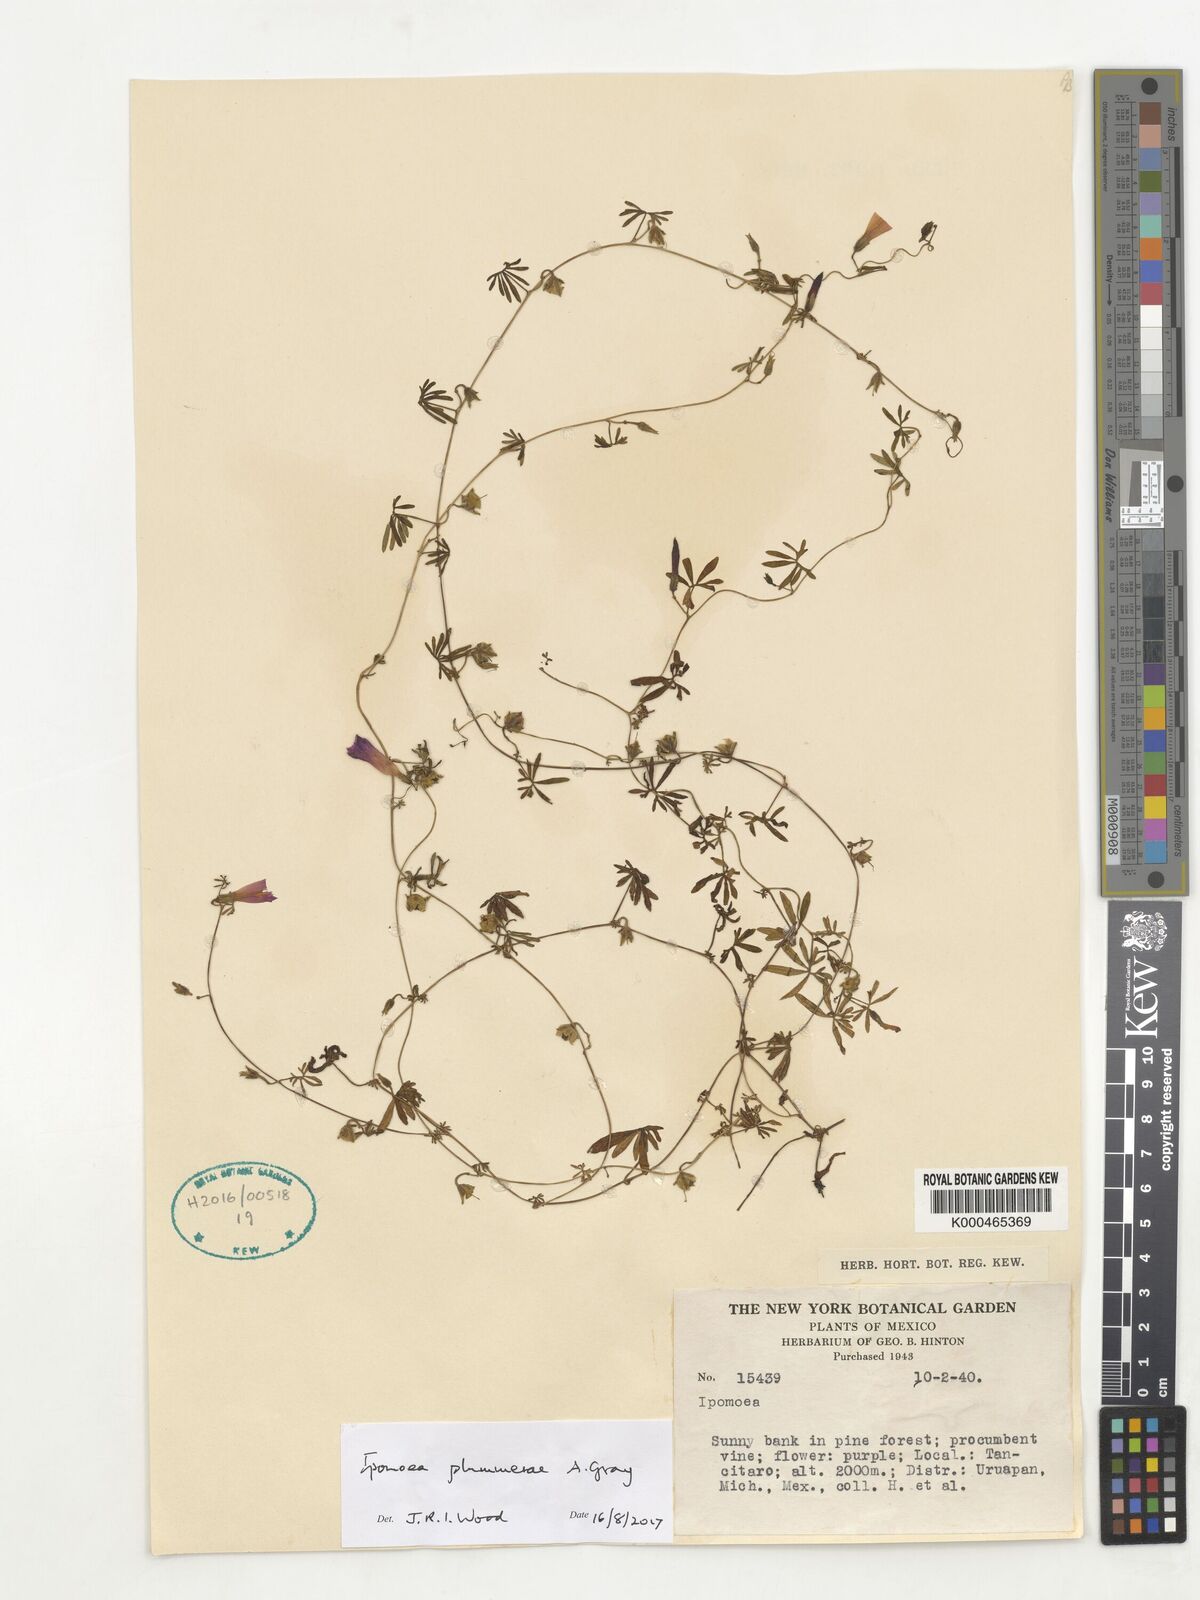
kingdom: Plantae
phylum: Tracheophyta
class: Magnoliopsida
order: Solanales
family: Convolvulaceae
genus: Ipomoea
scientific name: Ipomoea plummerae
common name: Plummer's morning-glory
